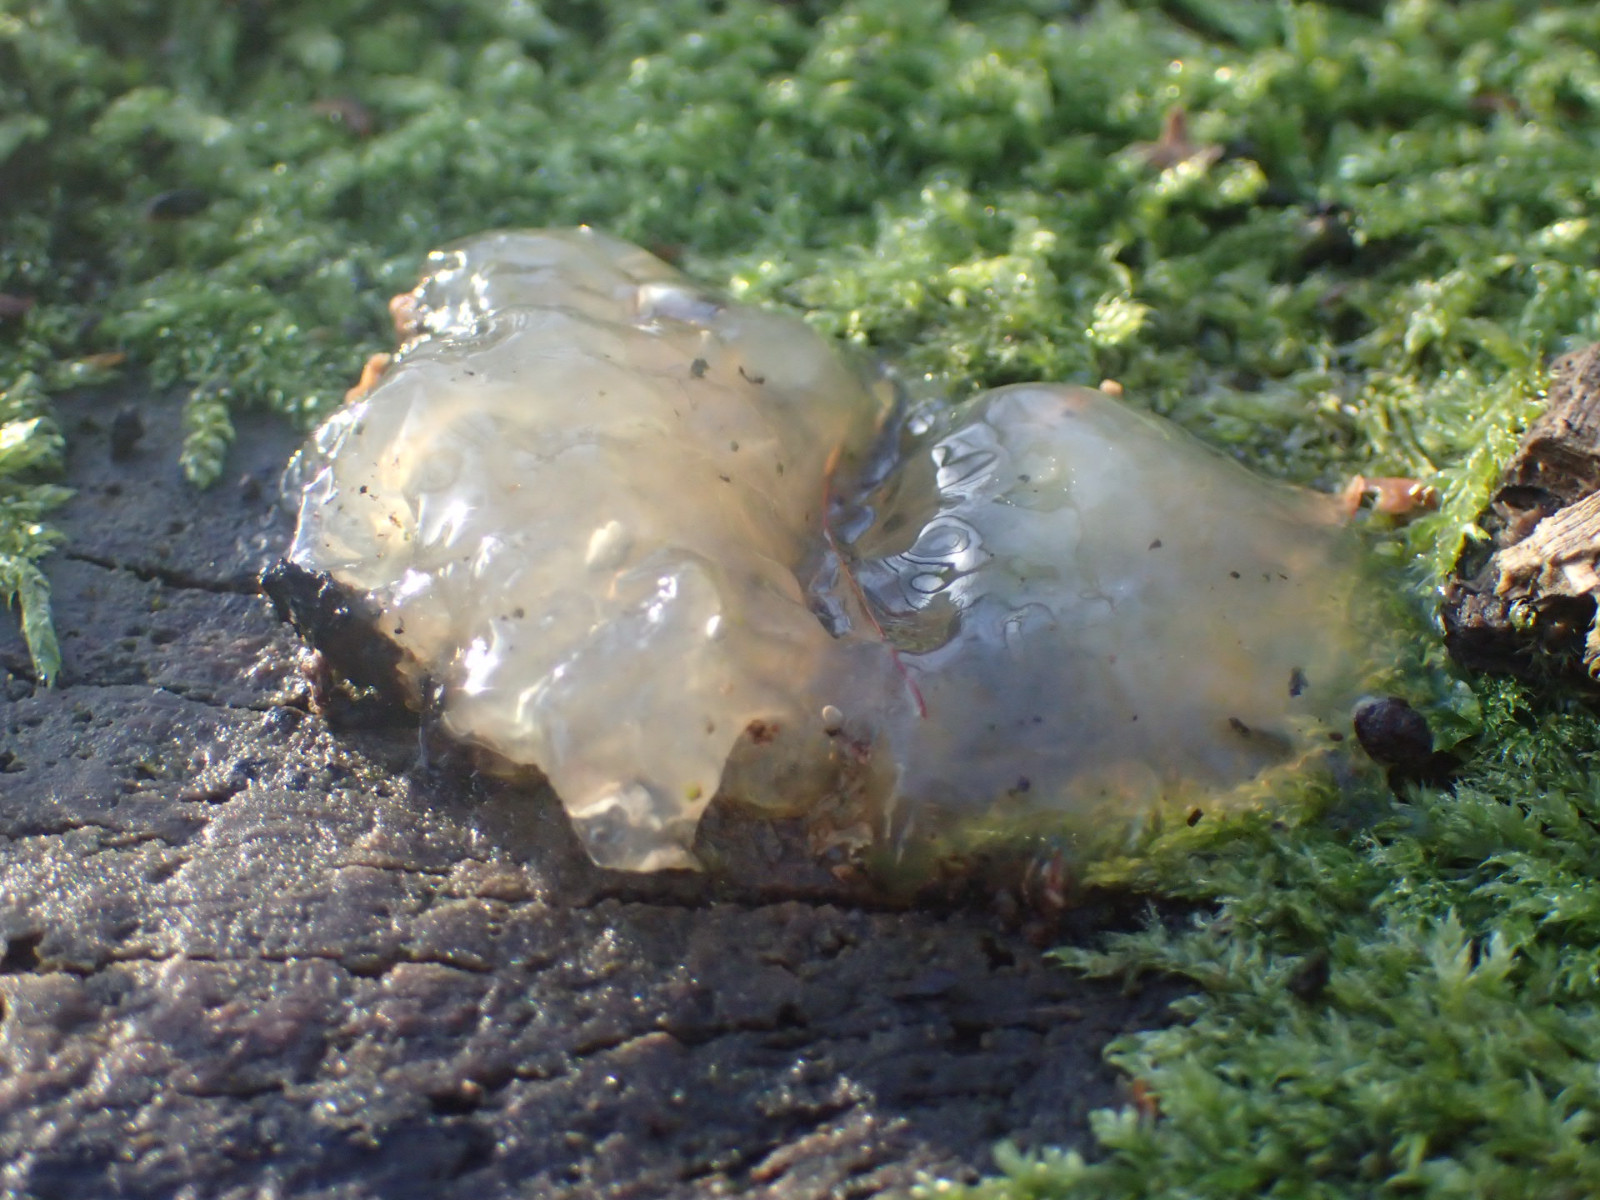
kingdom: Fungi
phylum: Basidiomycota
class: Agaricomycetes
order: Auriculariales
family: Hyaloriaceae
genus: Myxarium
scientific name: Myxarium nucleatum
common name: klar bævretop
